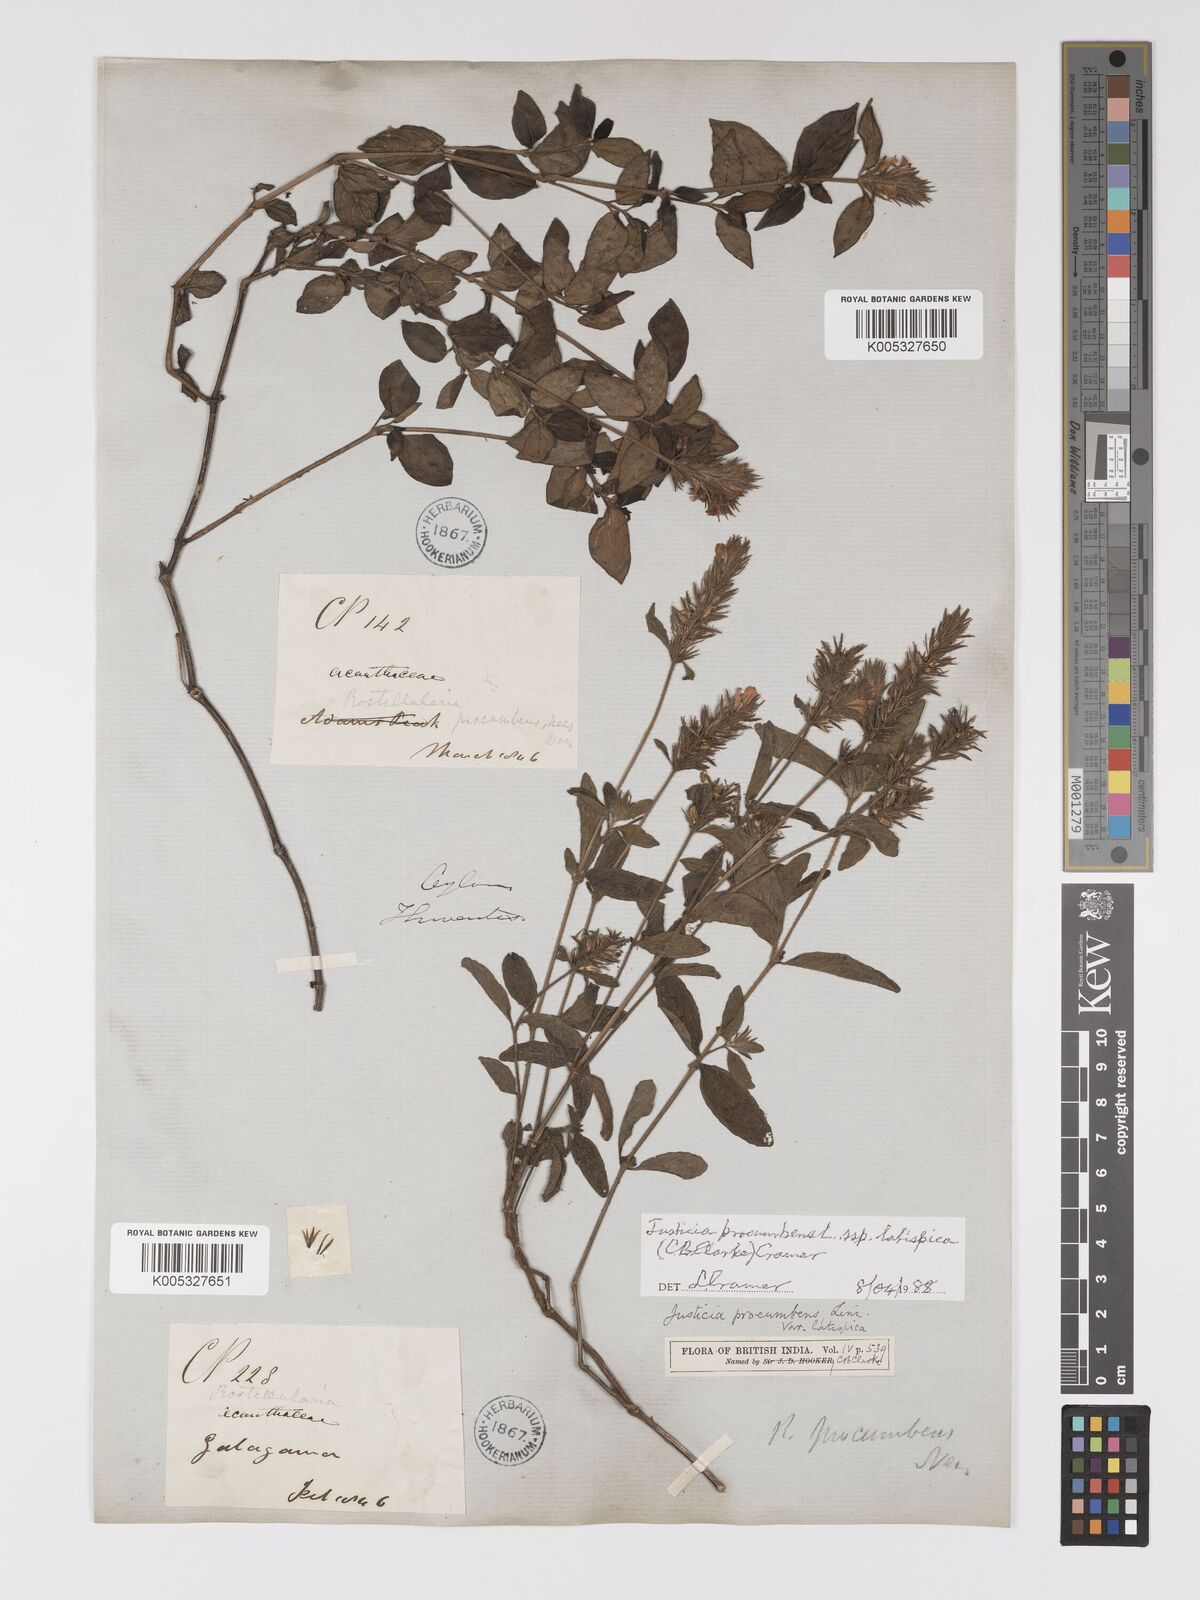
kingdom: Plantae
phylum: Tracheophyta
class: Magnoliopsida
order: Lamiales
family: Acanthaceae
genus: Rostellularia
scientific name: Rostellularia latispica
